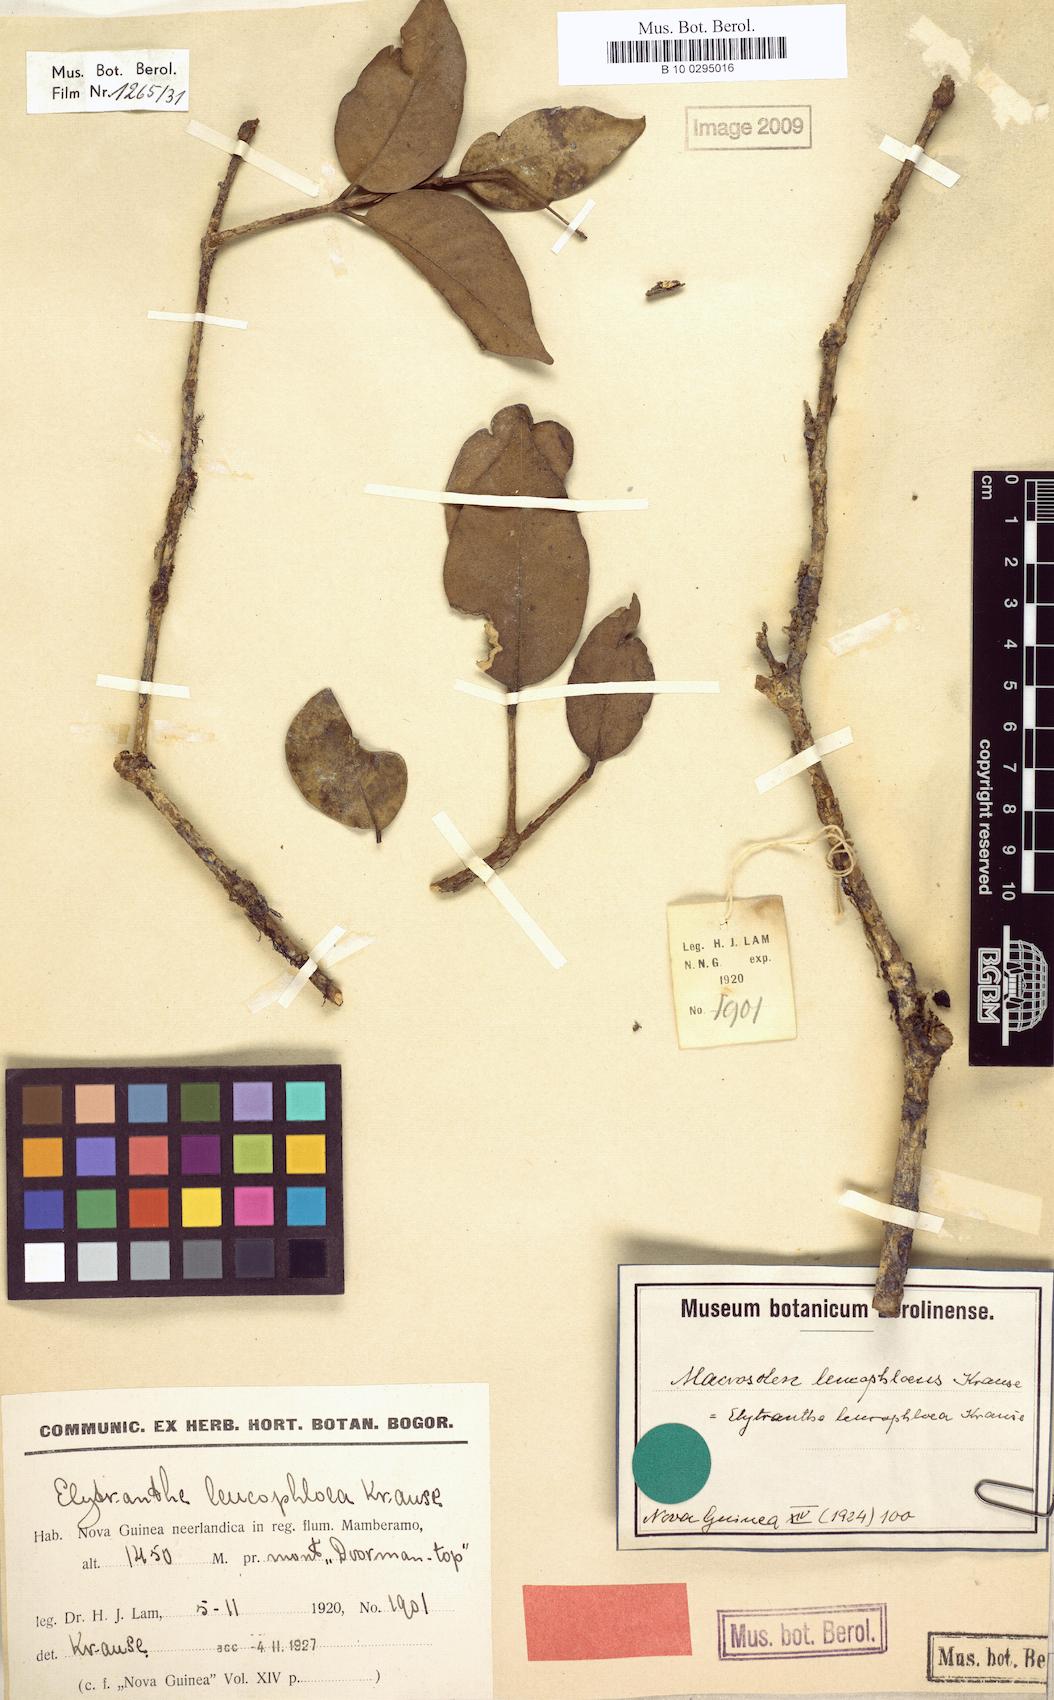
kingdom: Plantae
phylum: Tracheophyta
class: Magnoliopsida
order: Santalales
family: Loranthaceae
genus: Macrosolen
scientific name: Macrosolen cochinchinensis
